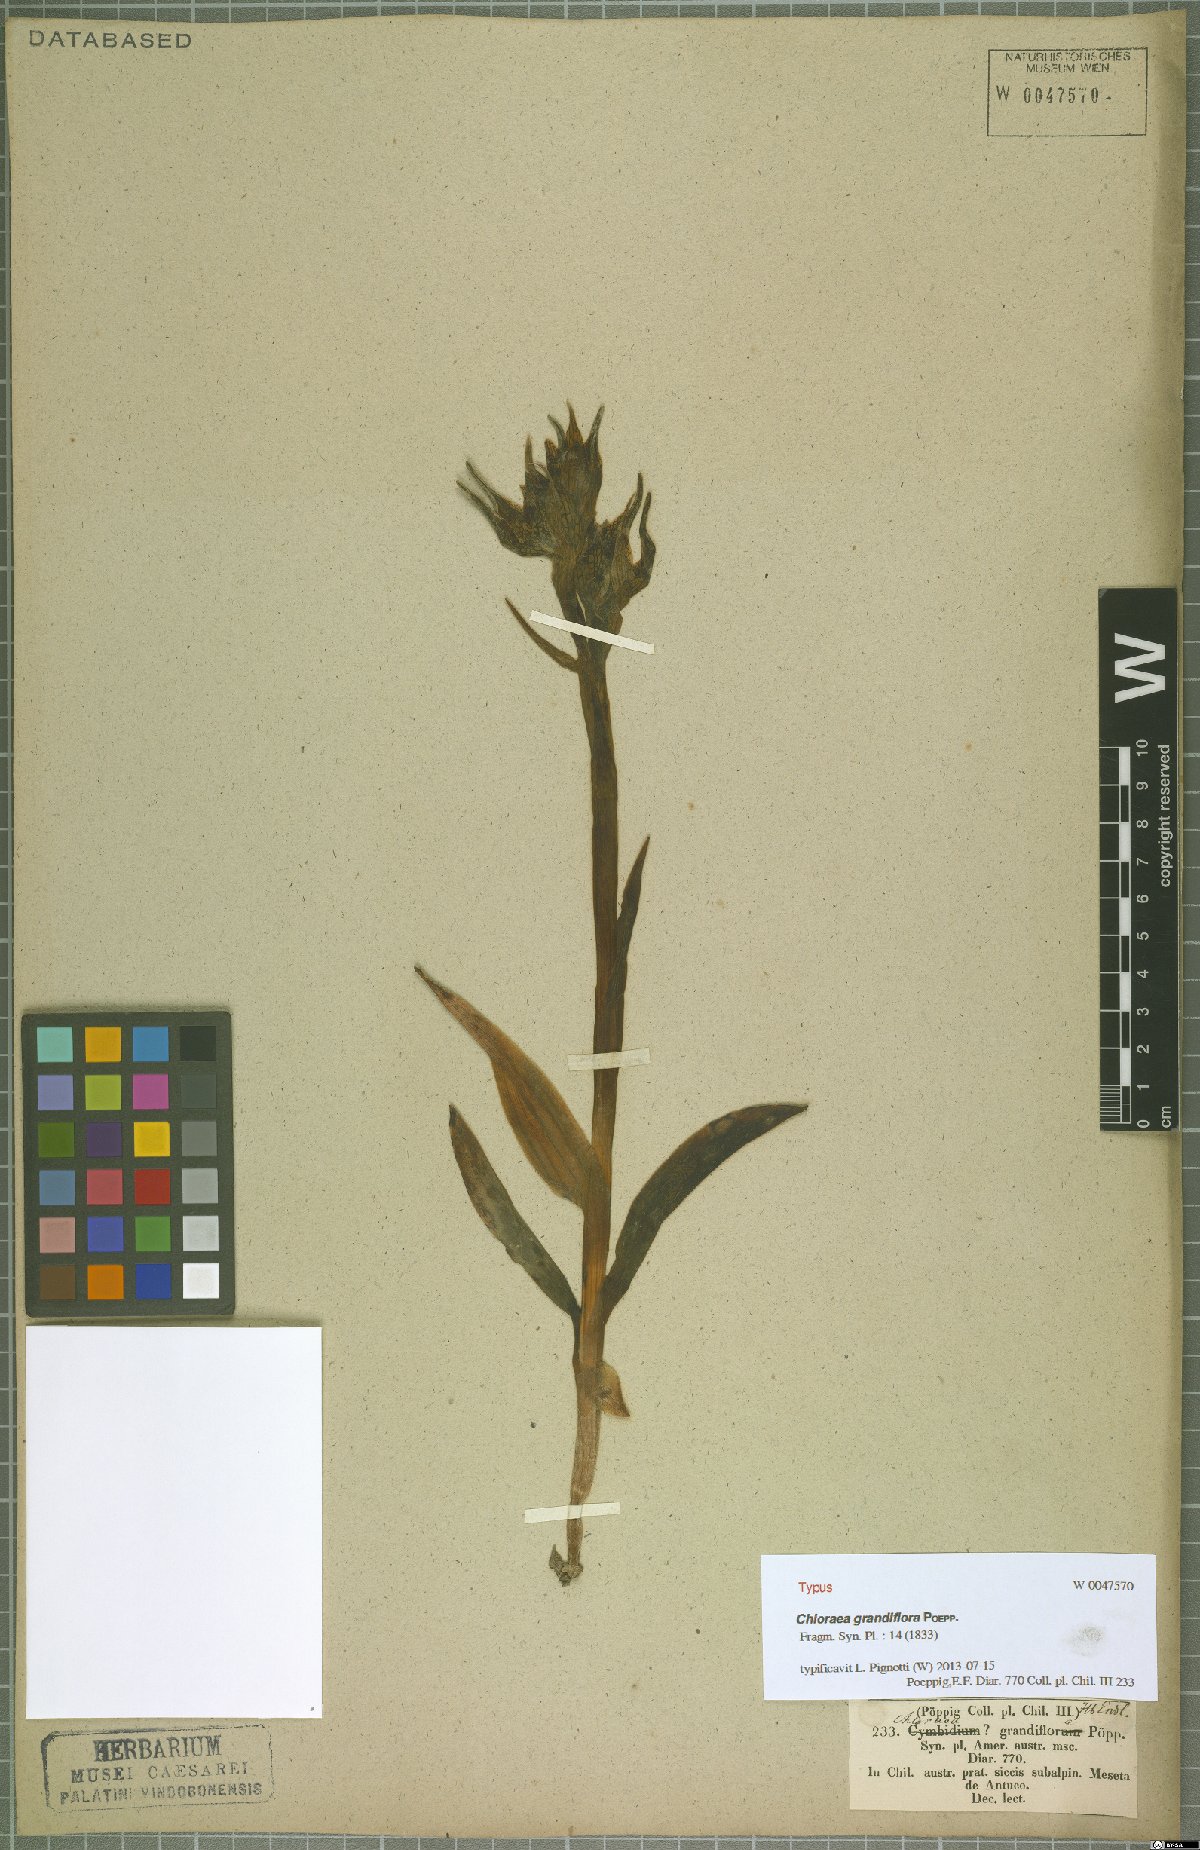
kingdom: Plantae
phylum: Tracheophyta
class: Liliopsida
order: Asparagales
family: Orchidaceae
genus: Chloraea
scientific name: Chloraea grandiflora
